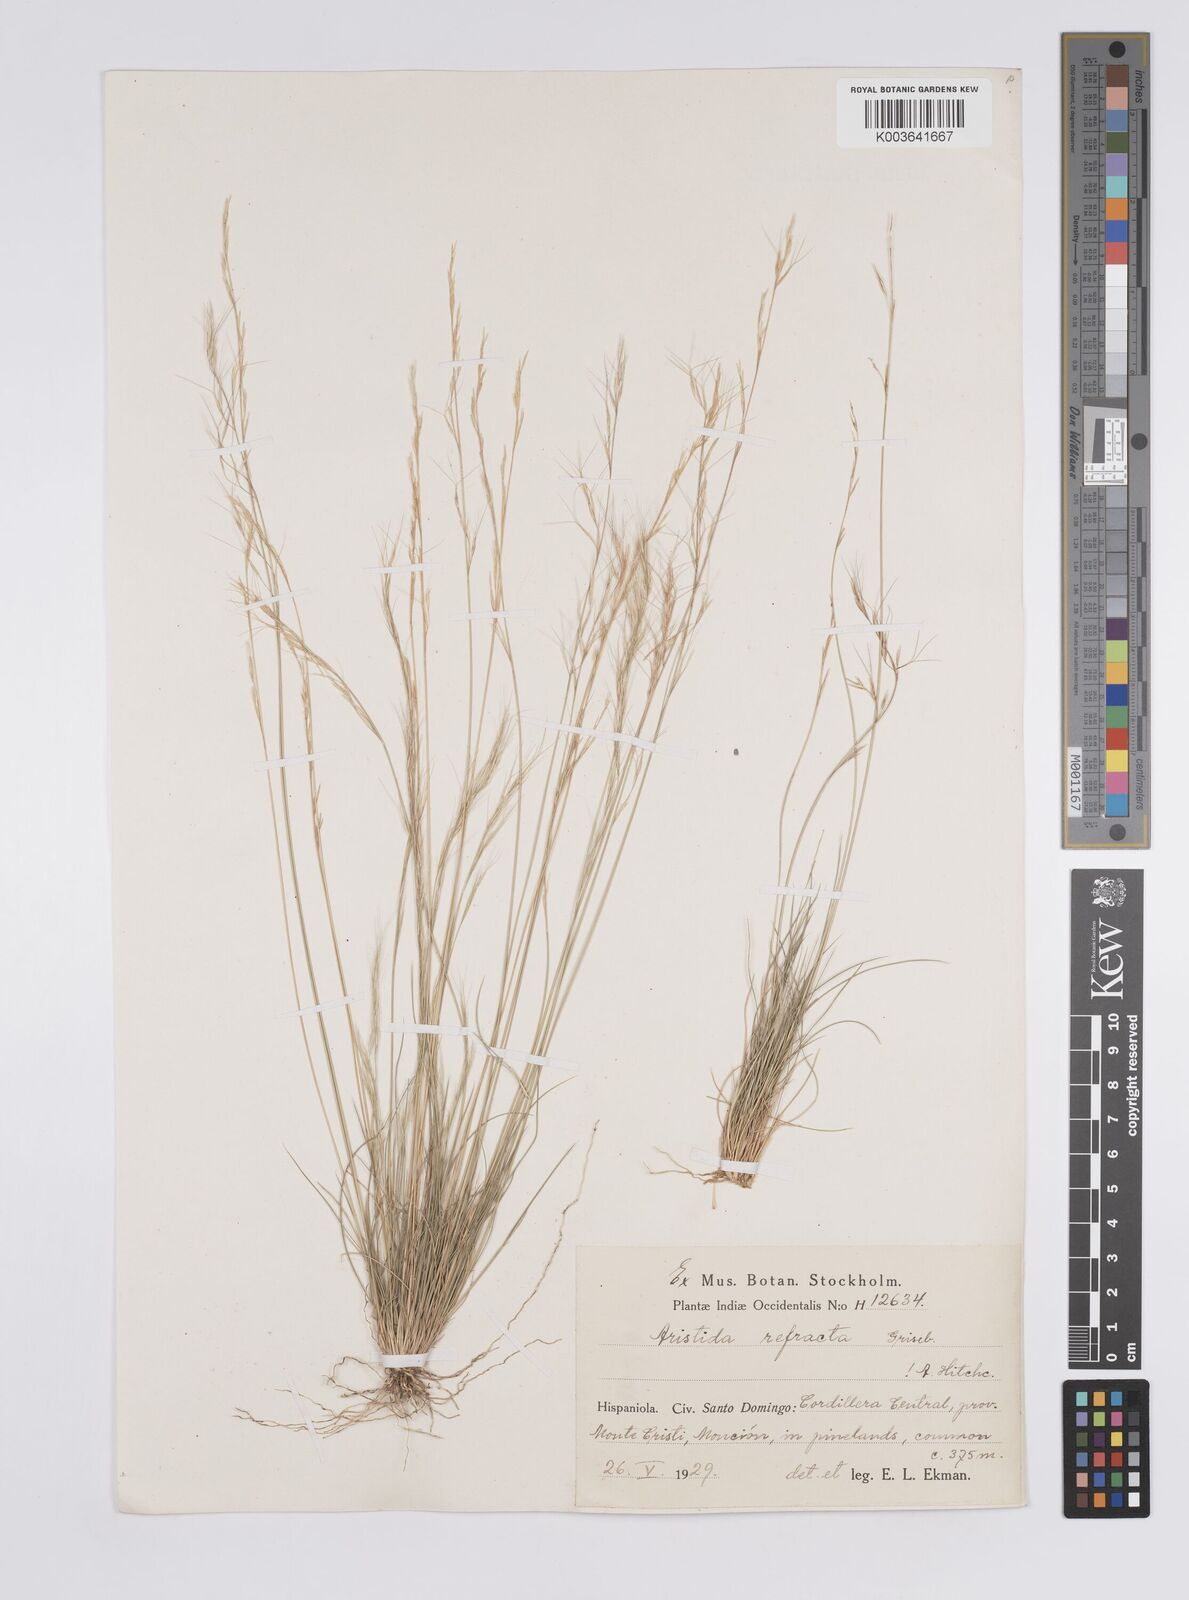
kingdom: Plantae
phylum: Tracheophyta
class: Liliopsida
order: Poales
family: Poaceae
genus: Aristida
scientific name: Aristida refracta
